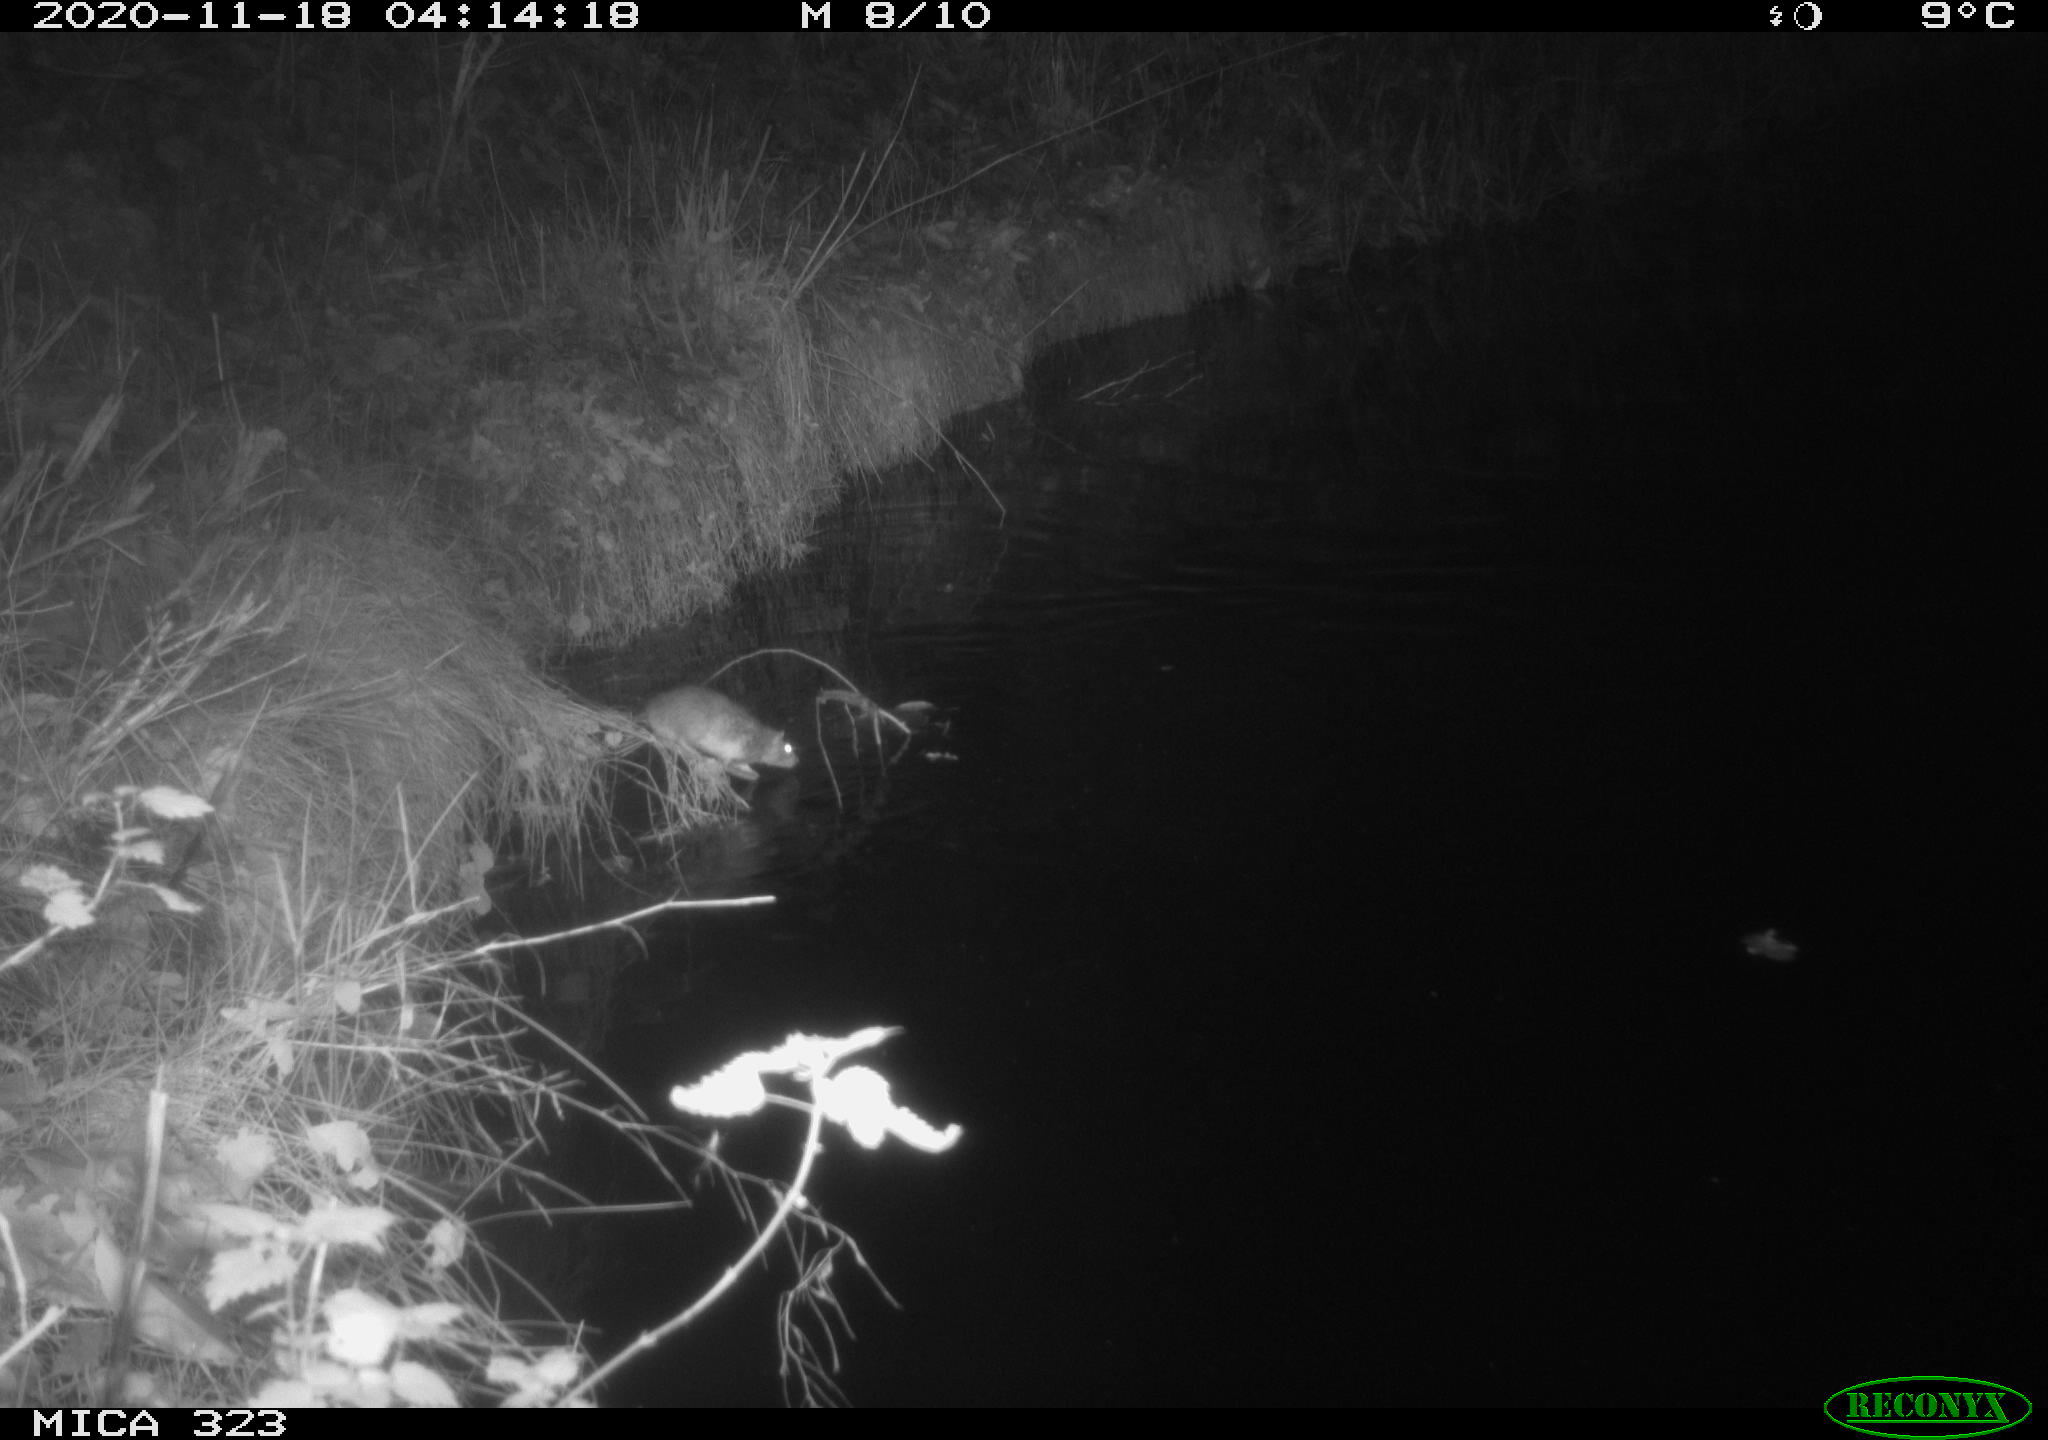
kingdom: Animalia
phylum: Chordata
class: Mammalia
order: Rodentia
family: Muridae
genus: Rattus
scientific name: Rattus norvegicus
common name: Brown rat
